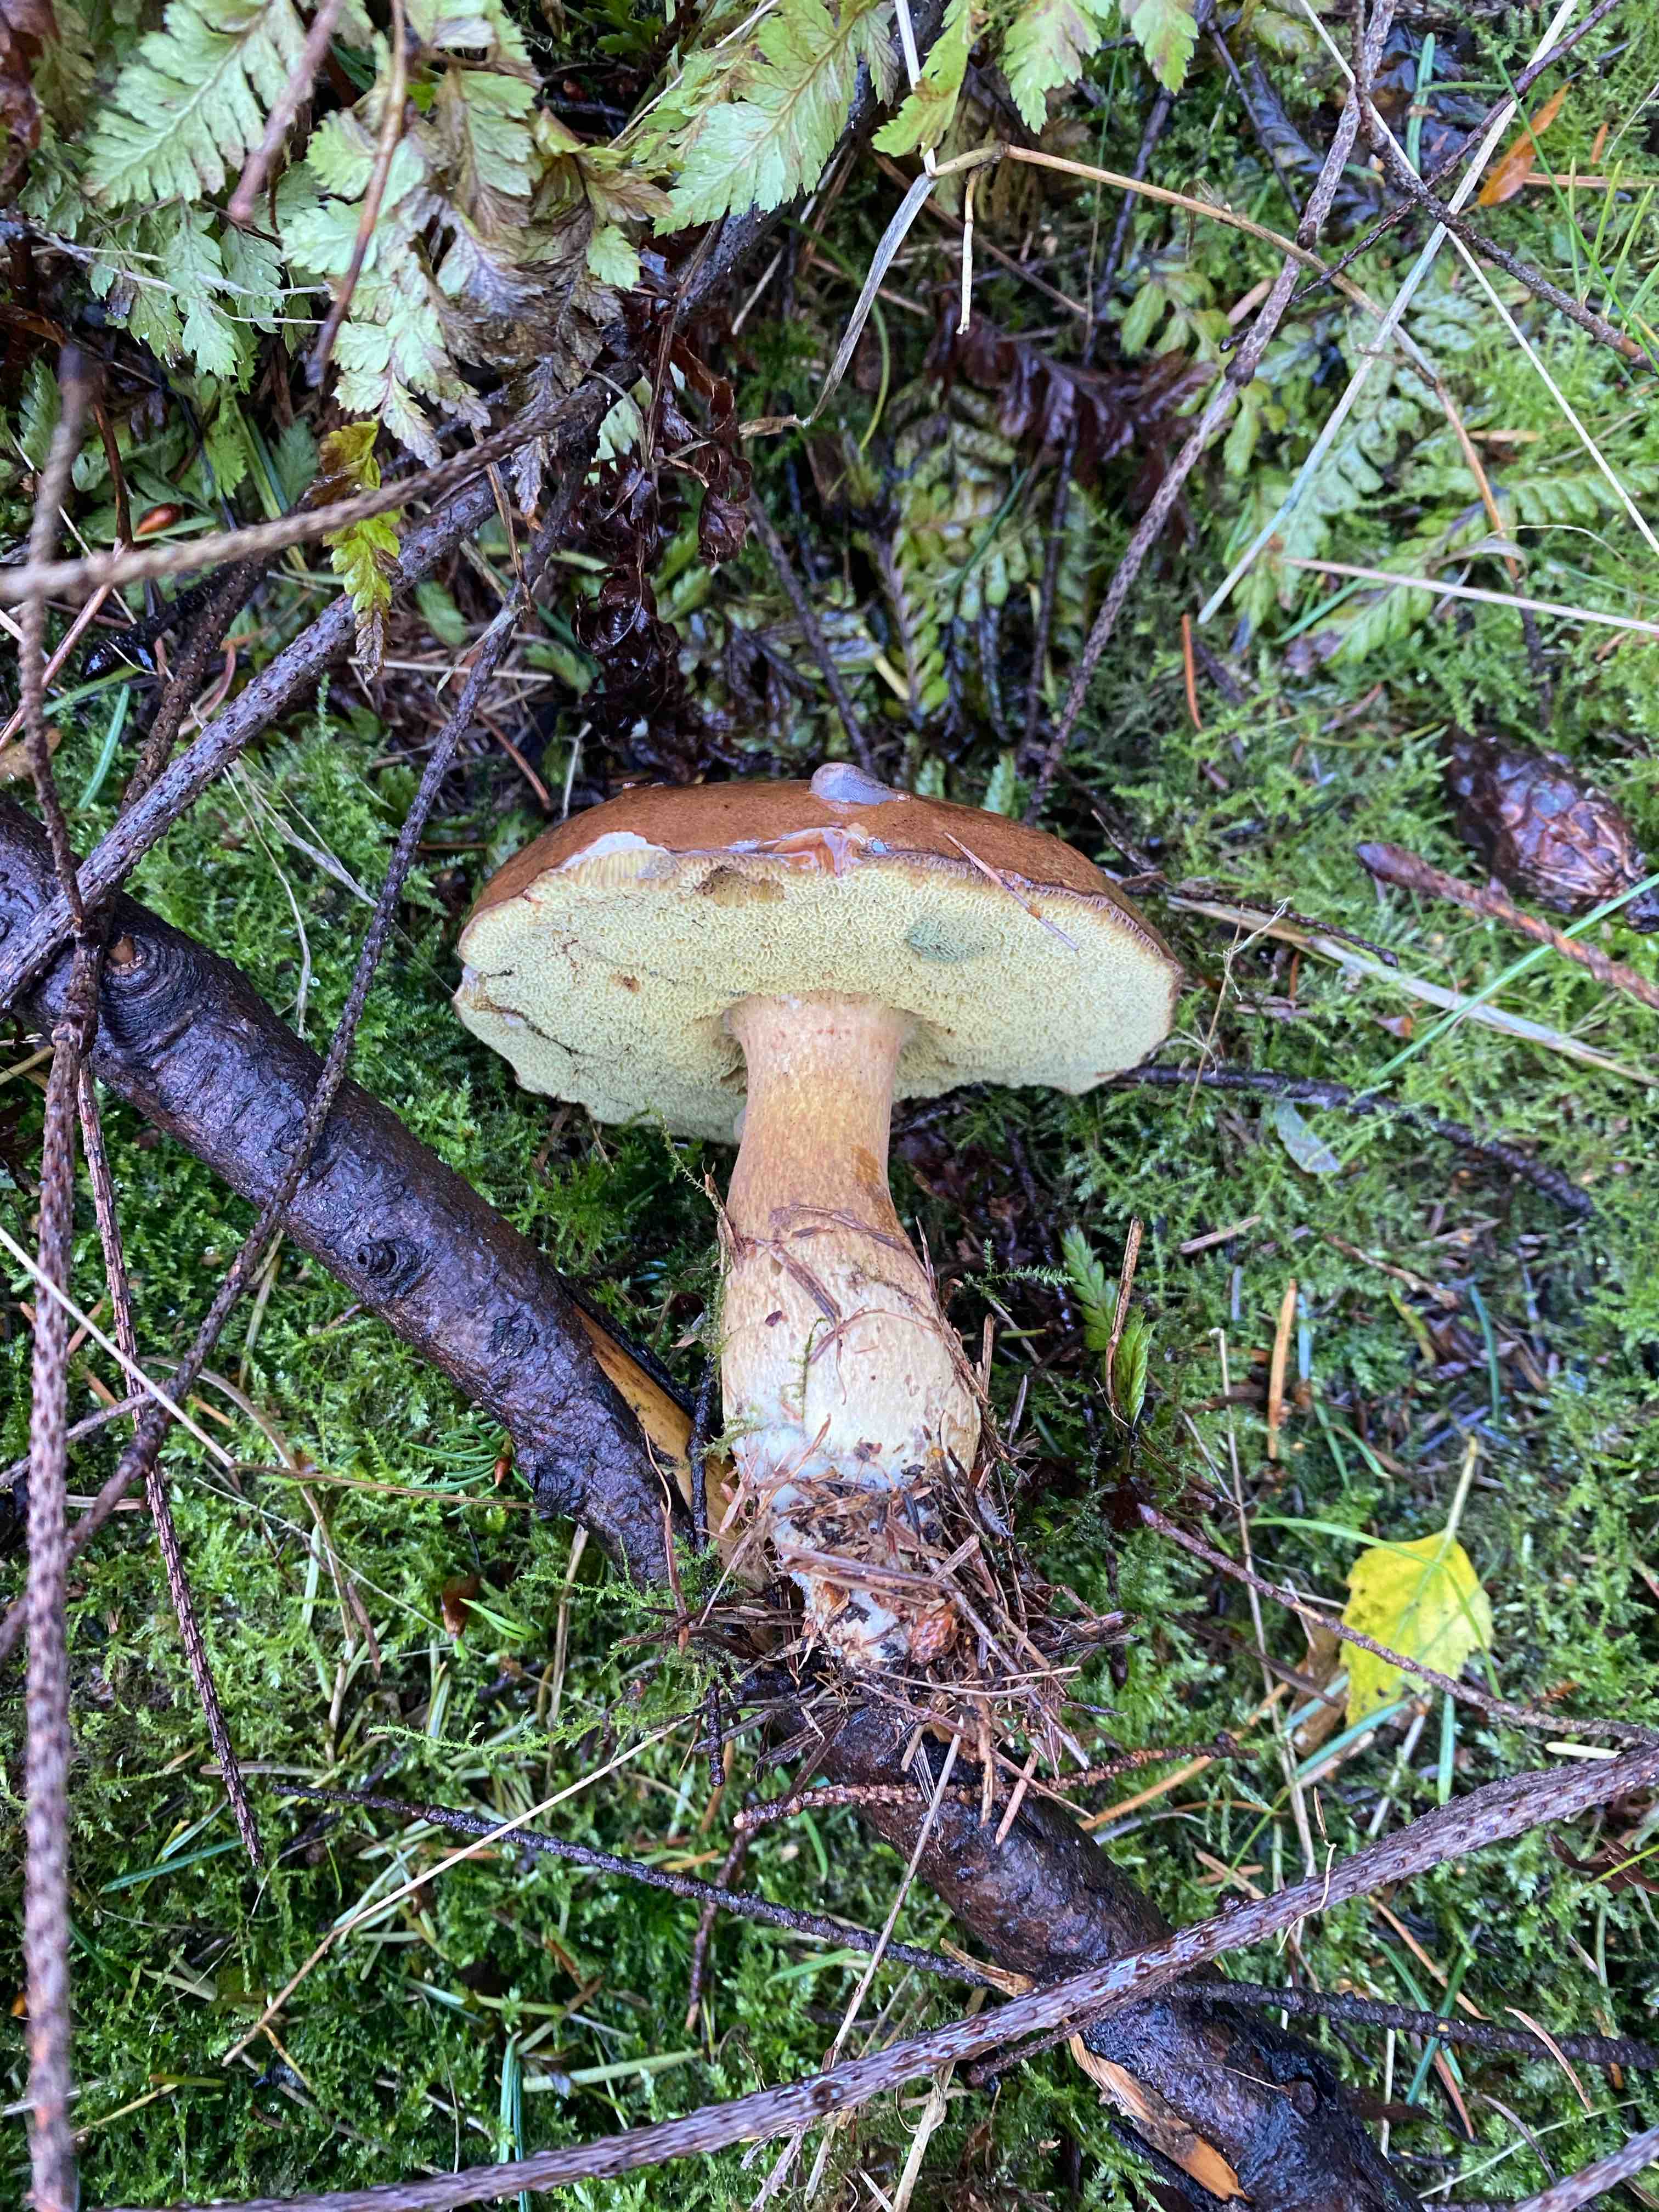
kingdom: Fungi
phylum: Basidiomycota
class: Agaricomycetes
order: Boletales
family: Boletaceae
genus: Imleria
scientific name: Imleria badia
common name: brunstokket rørhat
